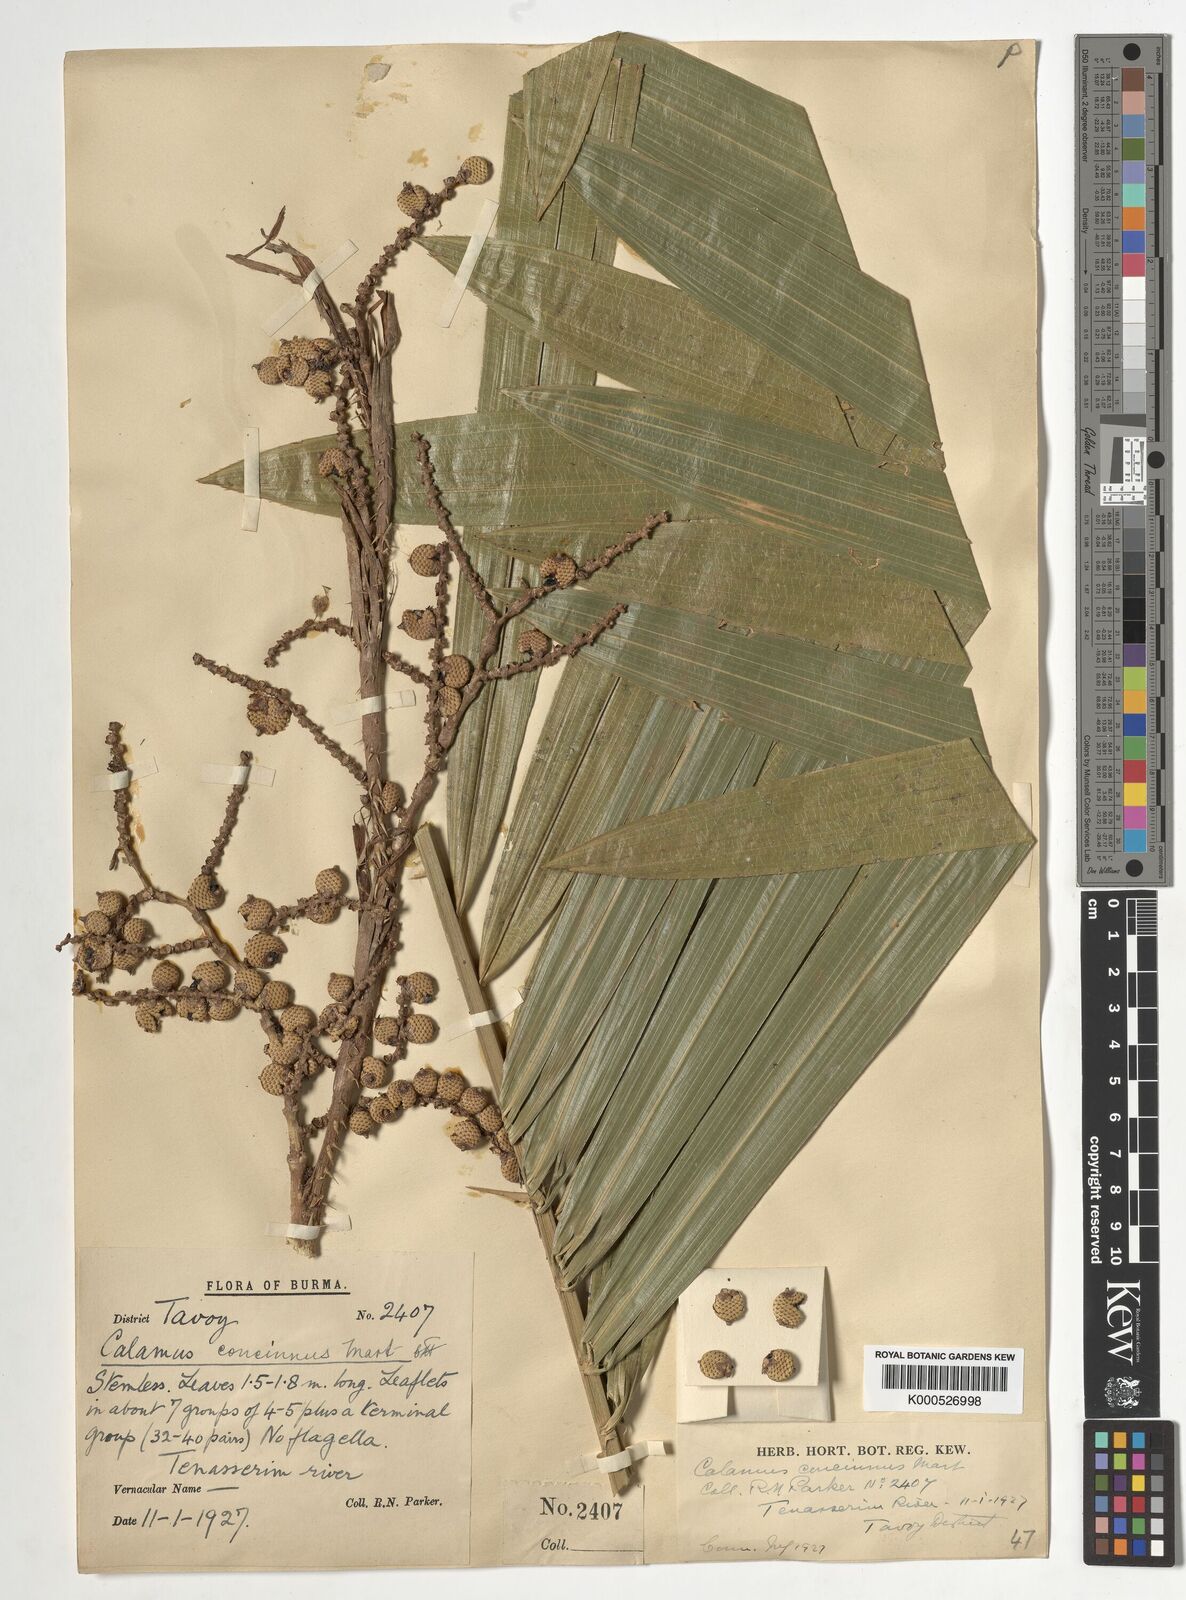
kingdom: Plantae
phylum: Tracheophyta
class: Liliopsida
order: Arecales
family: Arecaceae
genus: Calamus
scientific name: Calamus concinnus
